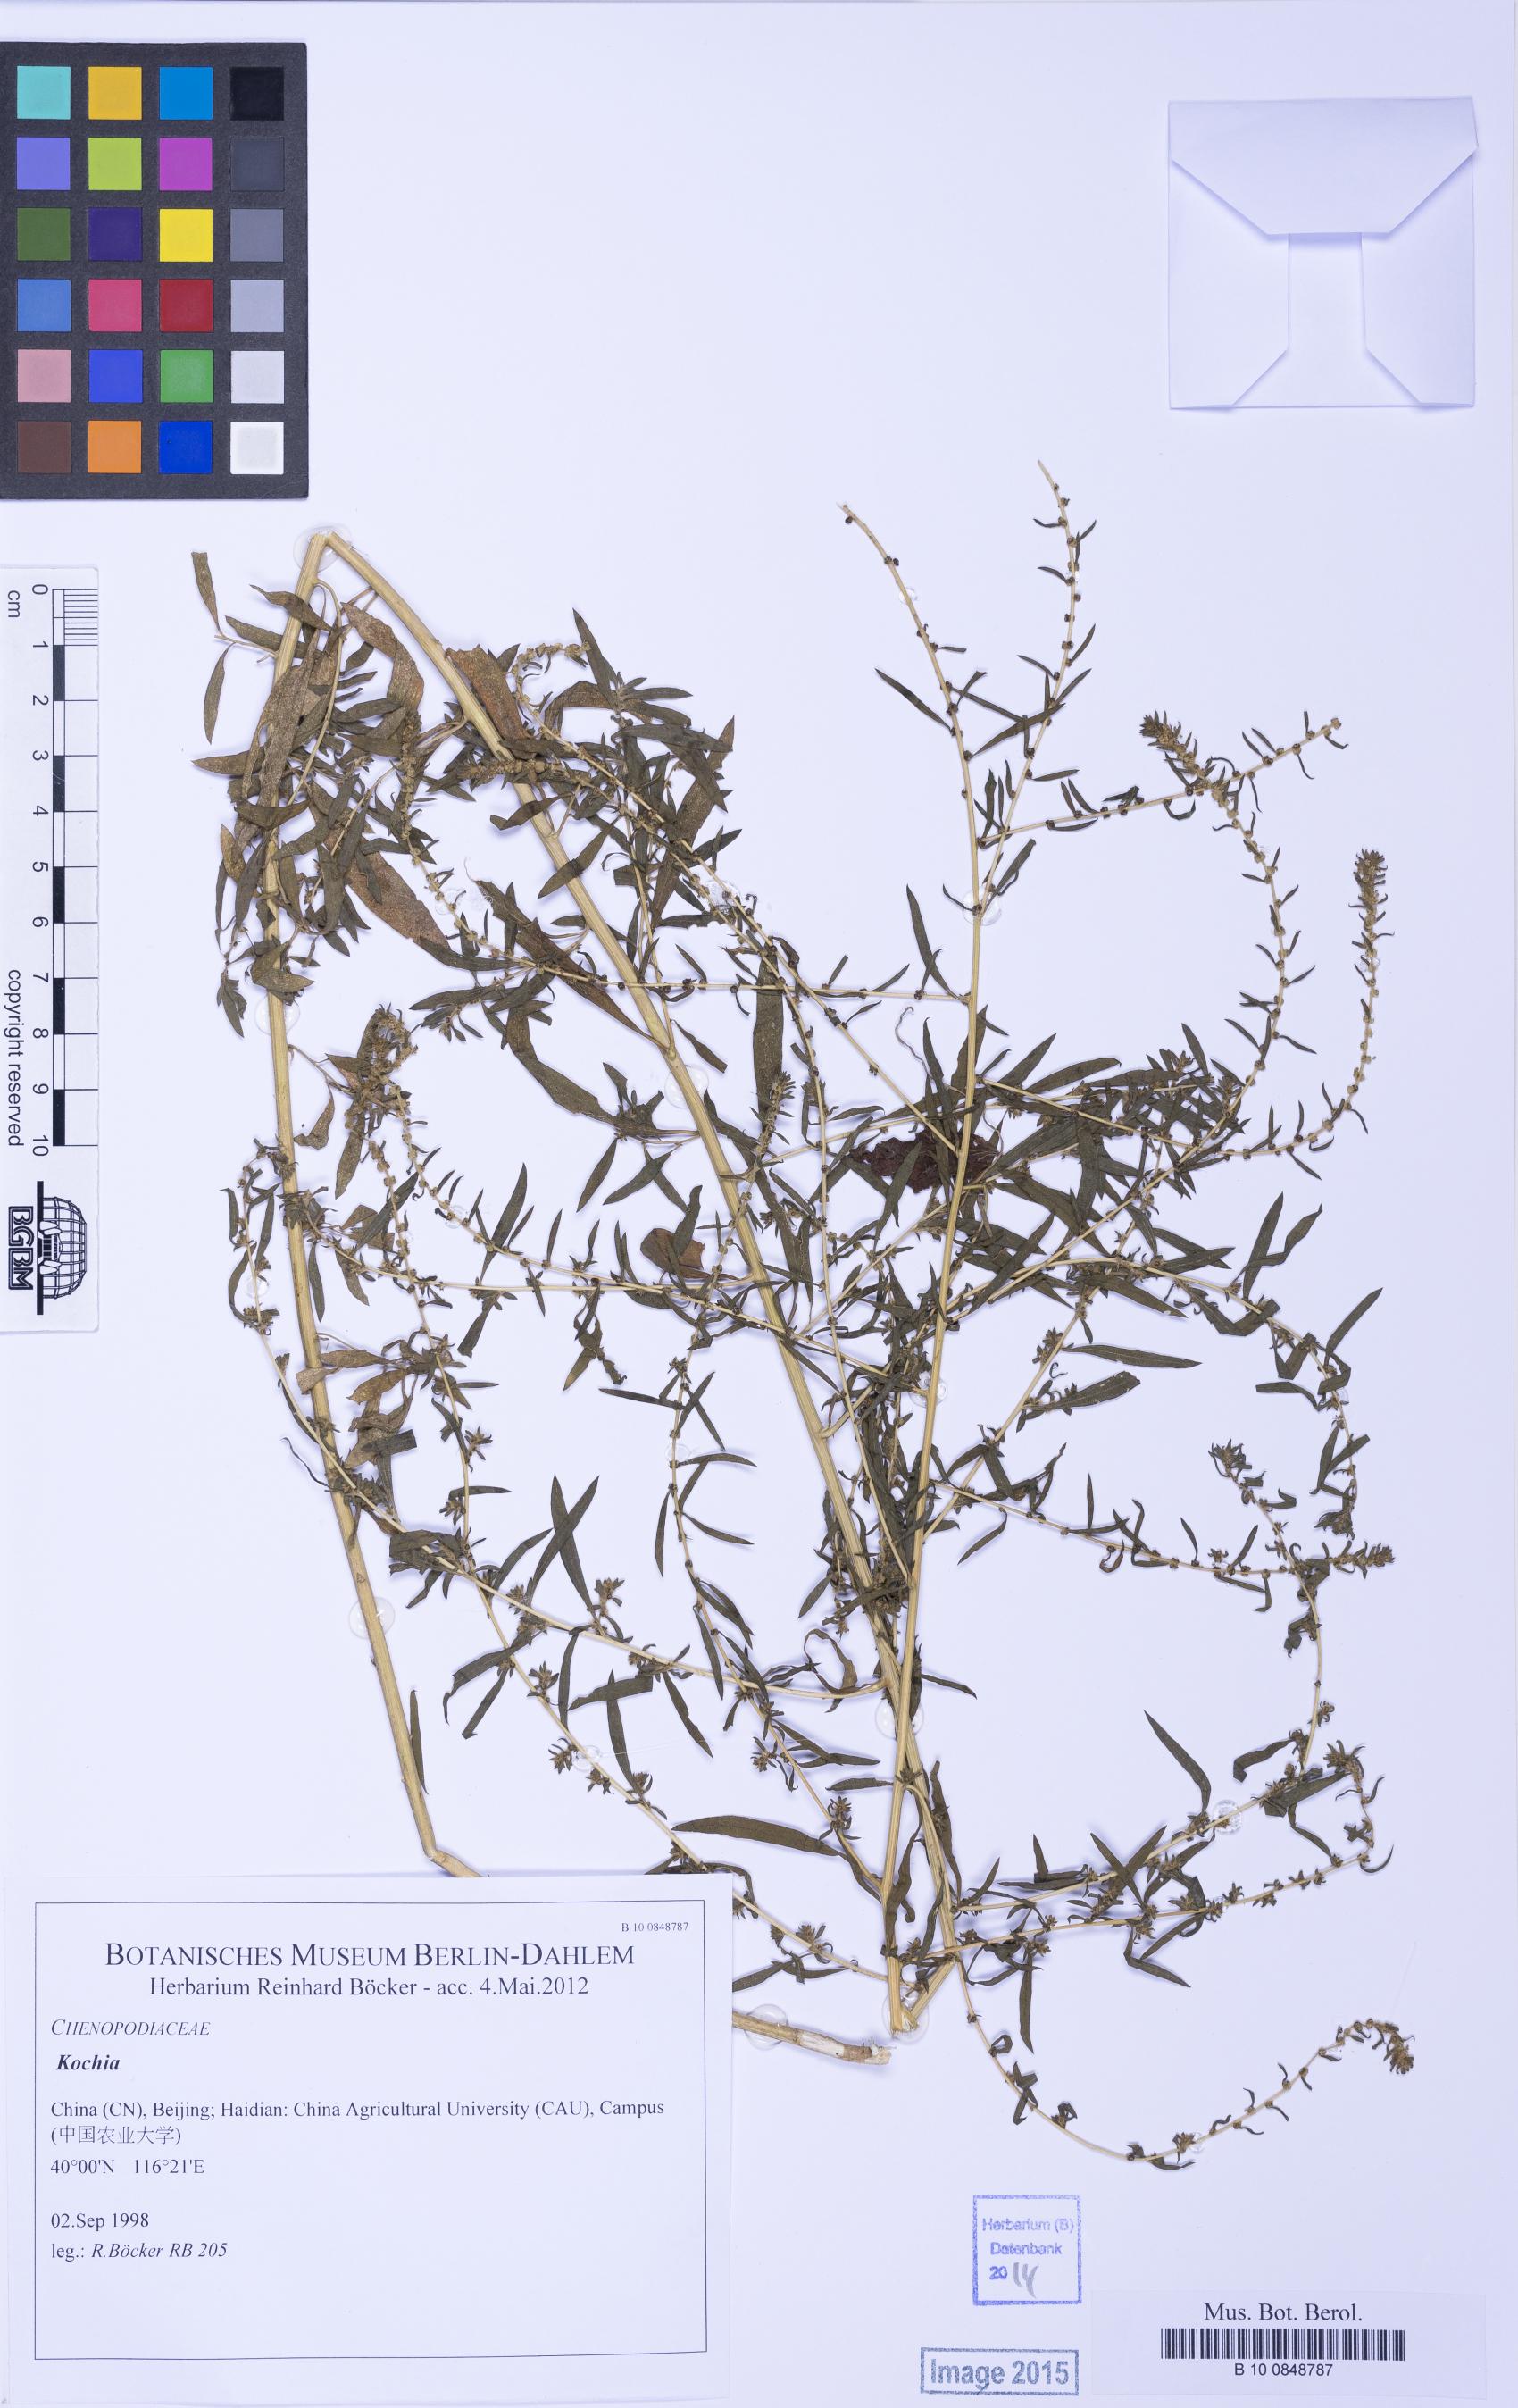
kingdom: Plantae
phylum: Tracheophyta
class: Magnoliopsida
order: Caryophyllales
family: Amaranthaceae
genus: Bassia
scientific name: Bassia
